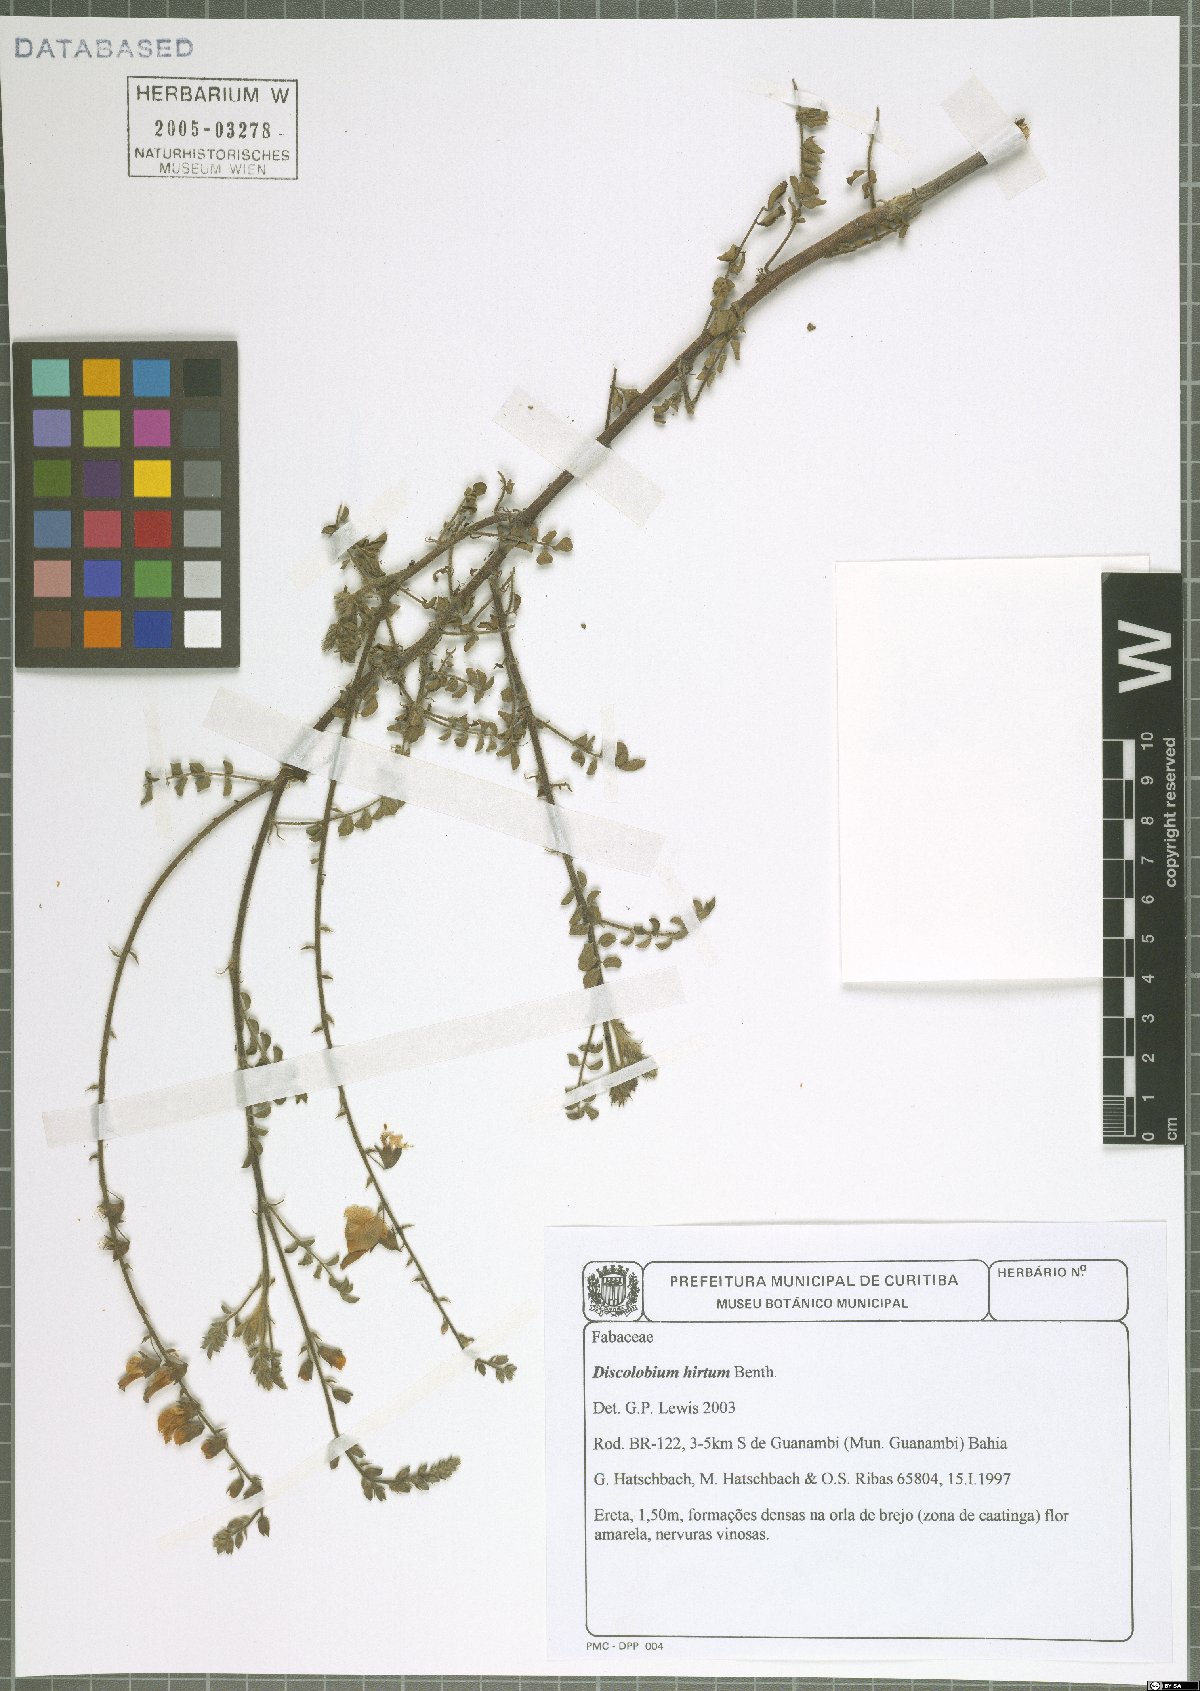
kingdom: Plantae
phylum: Tracheophyta
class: Magnoliopsida
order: Fabales
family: Fabaceae
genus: Discolobium
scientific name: Discolobium hirtum
